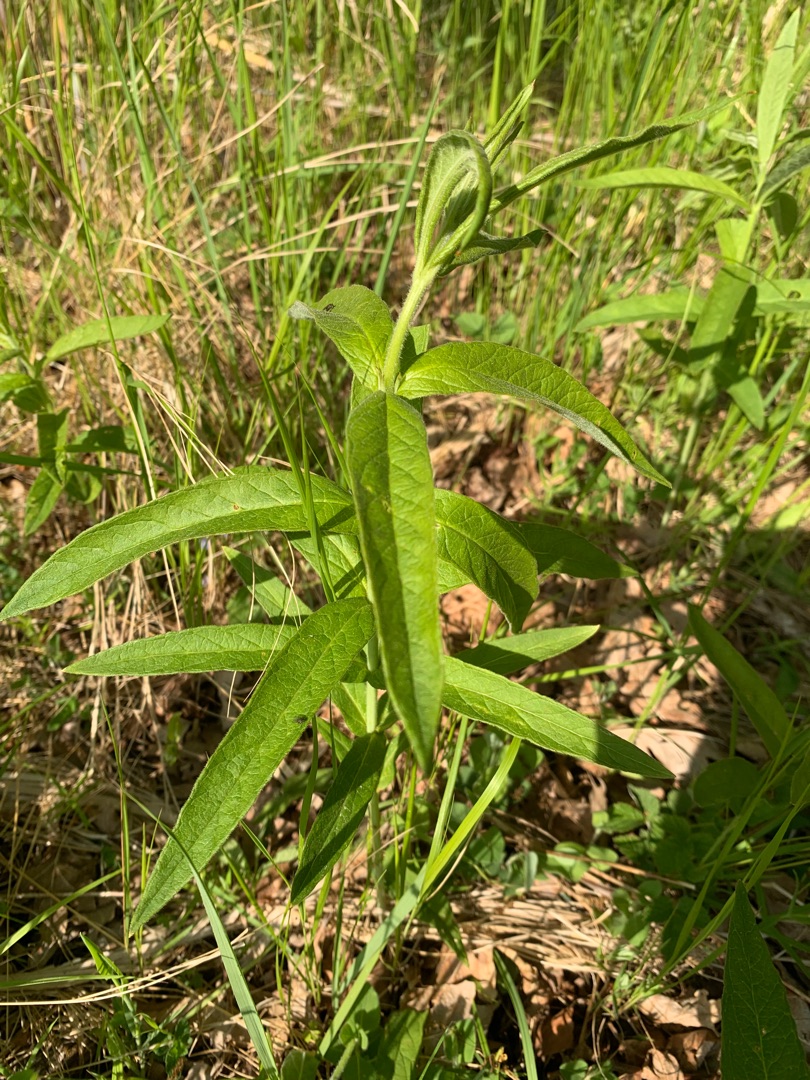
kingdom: Plantae
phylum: Tracheophyta
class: Magnoliopsida
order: Ericales
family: Primulaceae
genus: Lysimachia
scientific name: Lysimachia vulgaris
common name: Almindelig fredløs
